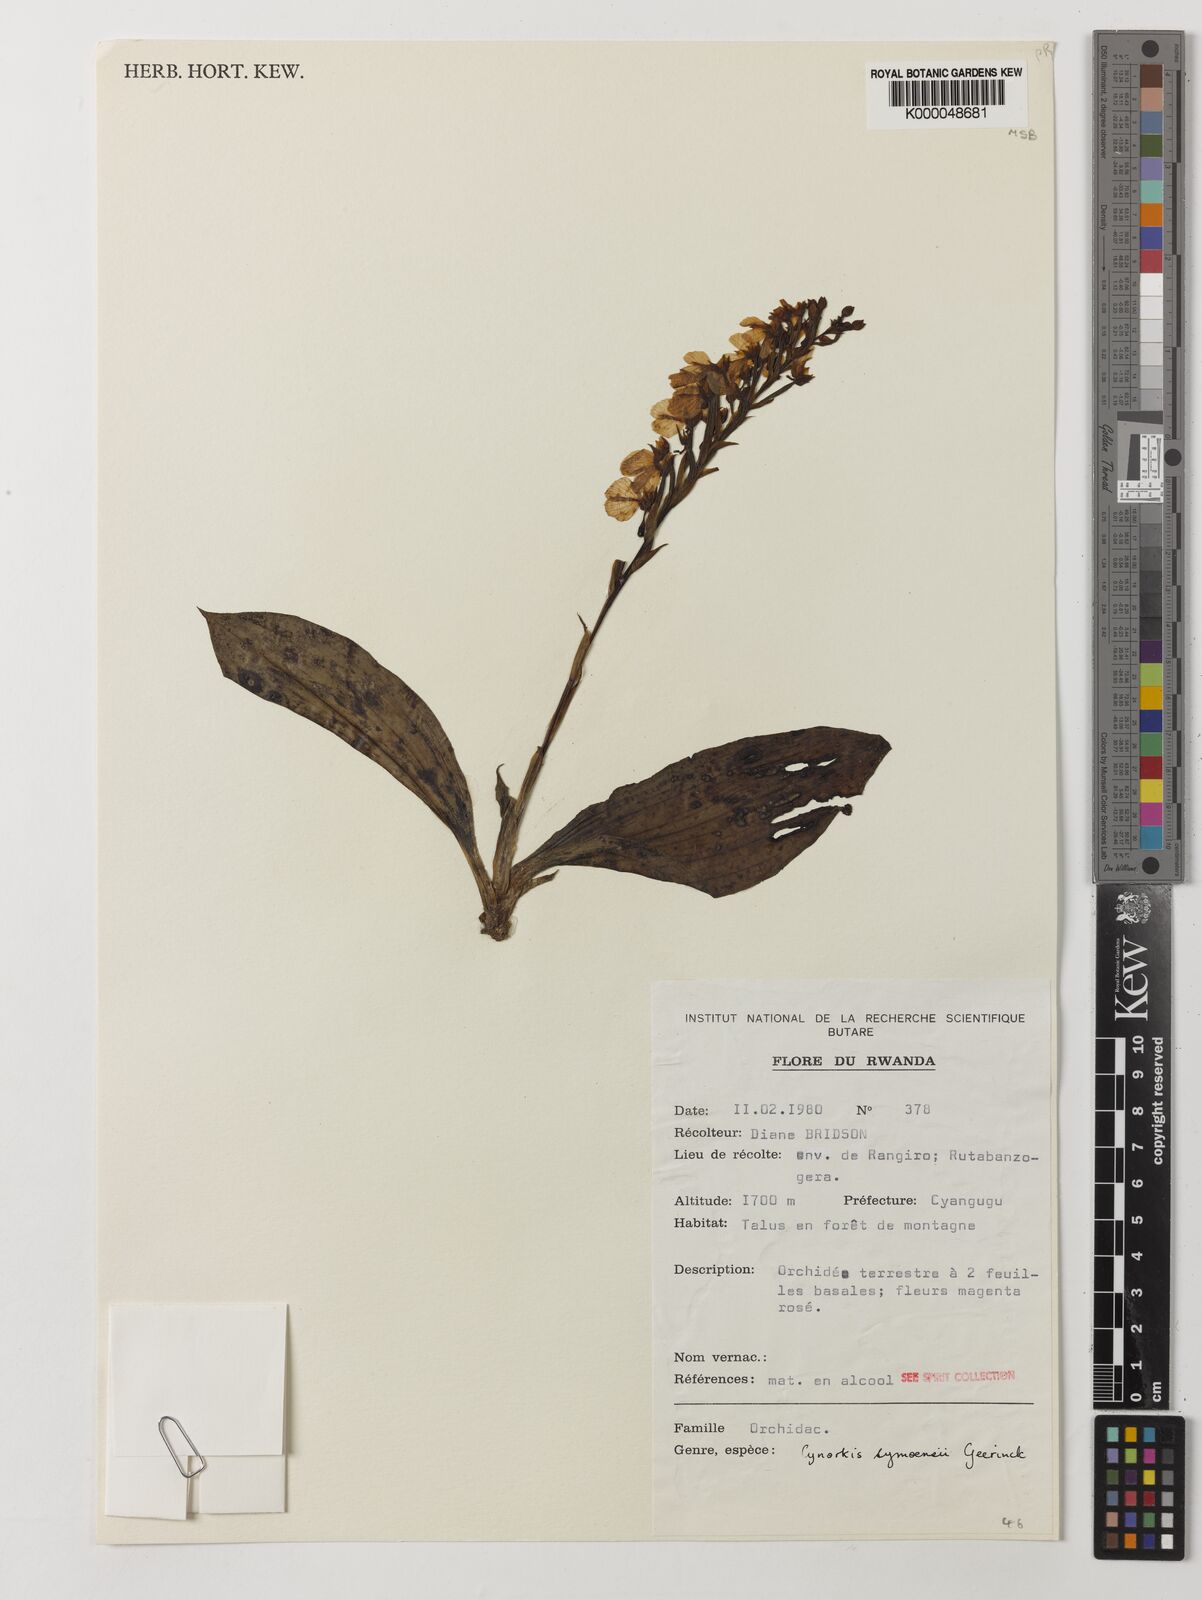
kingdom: Plantae
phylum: Tracheophyta
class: Liliopsida
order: Asparagales
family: Orchidaceae
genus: Cynorkis
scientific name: Cynorkis symoensii
